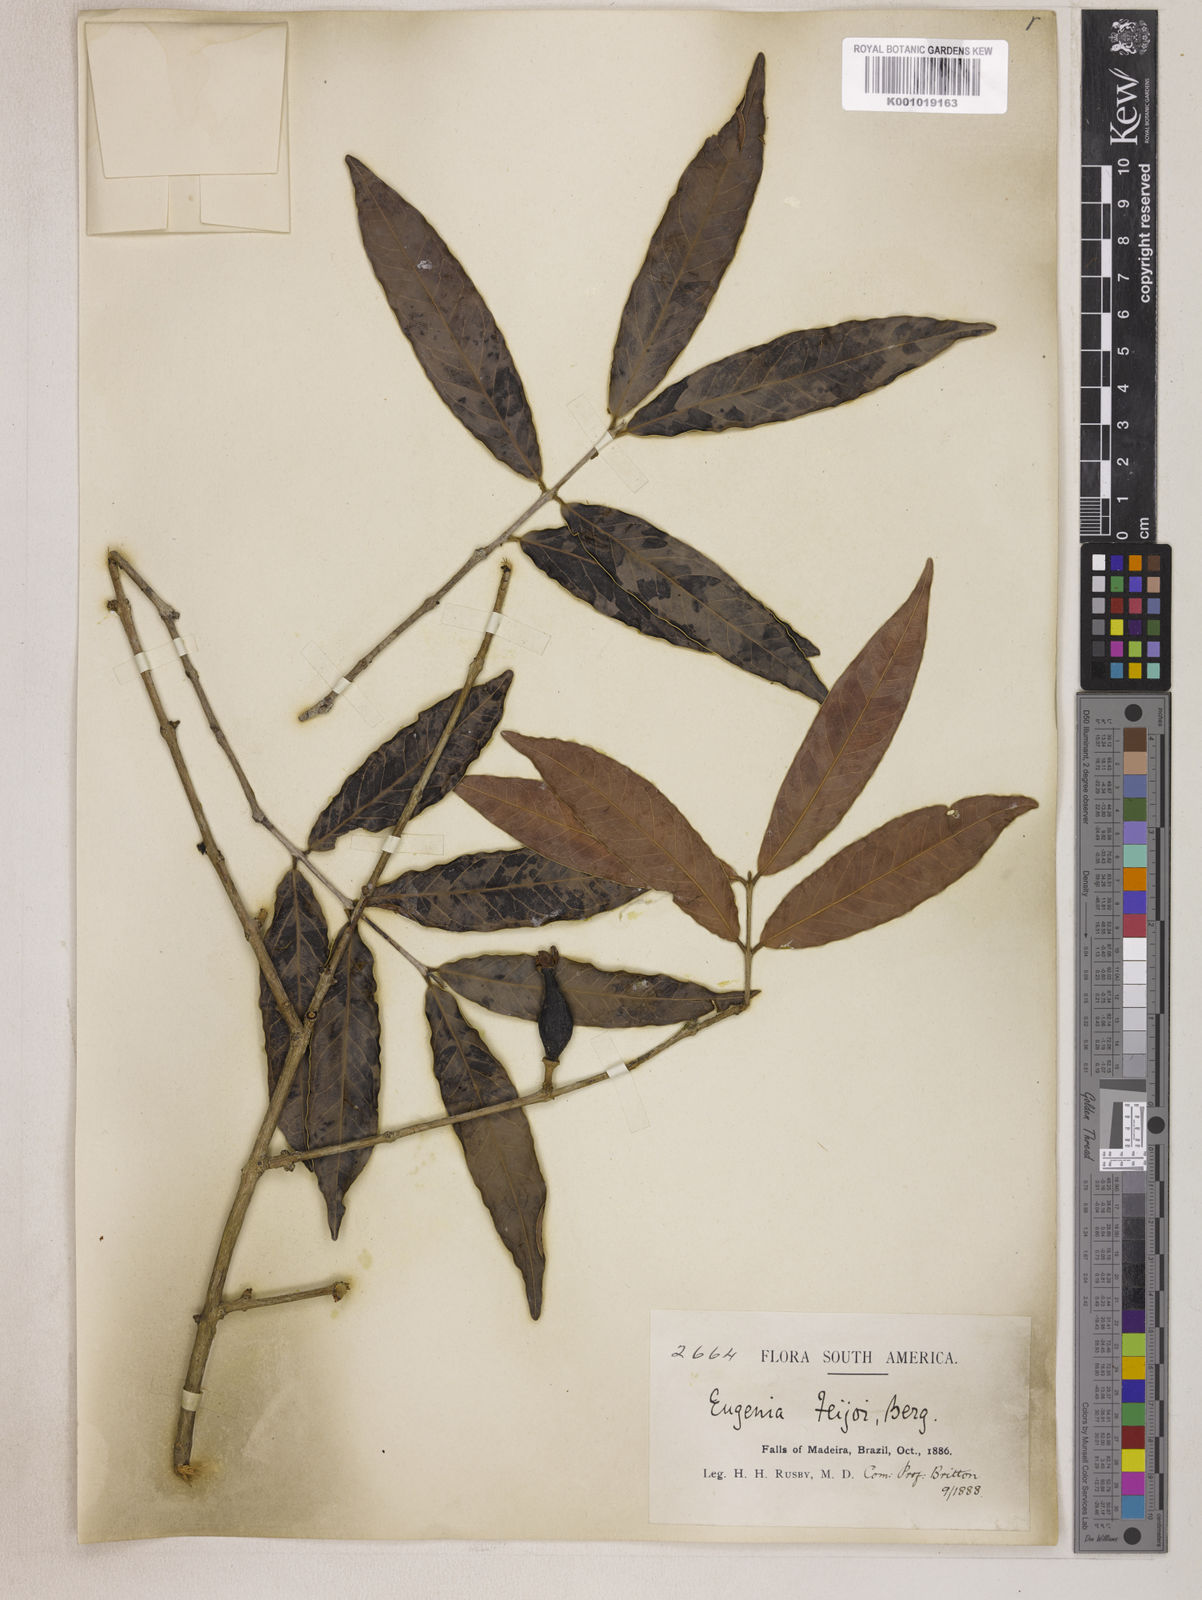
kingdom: Plantae
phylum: Tracheophyta
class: Magnoliopsida
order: Myrtales
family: Myrtaceae
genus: Eugenia
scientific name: Eugenia moschata
